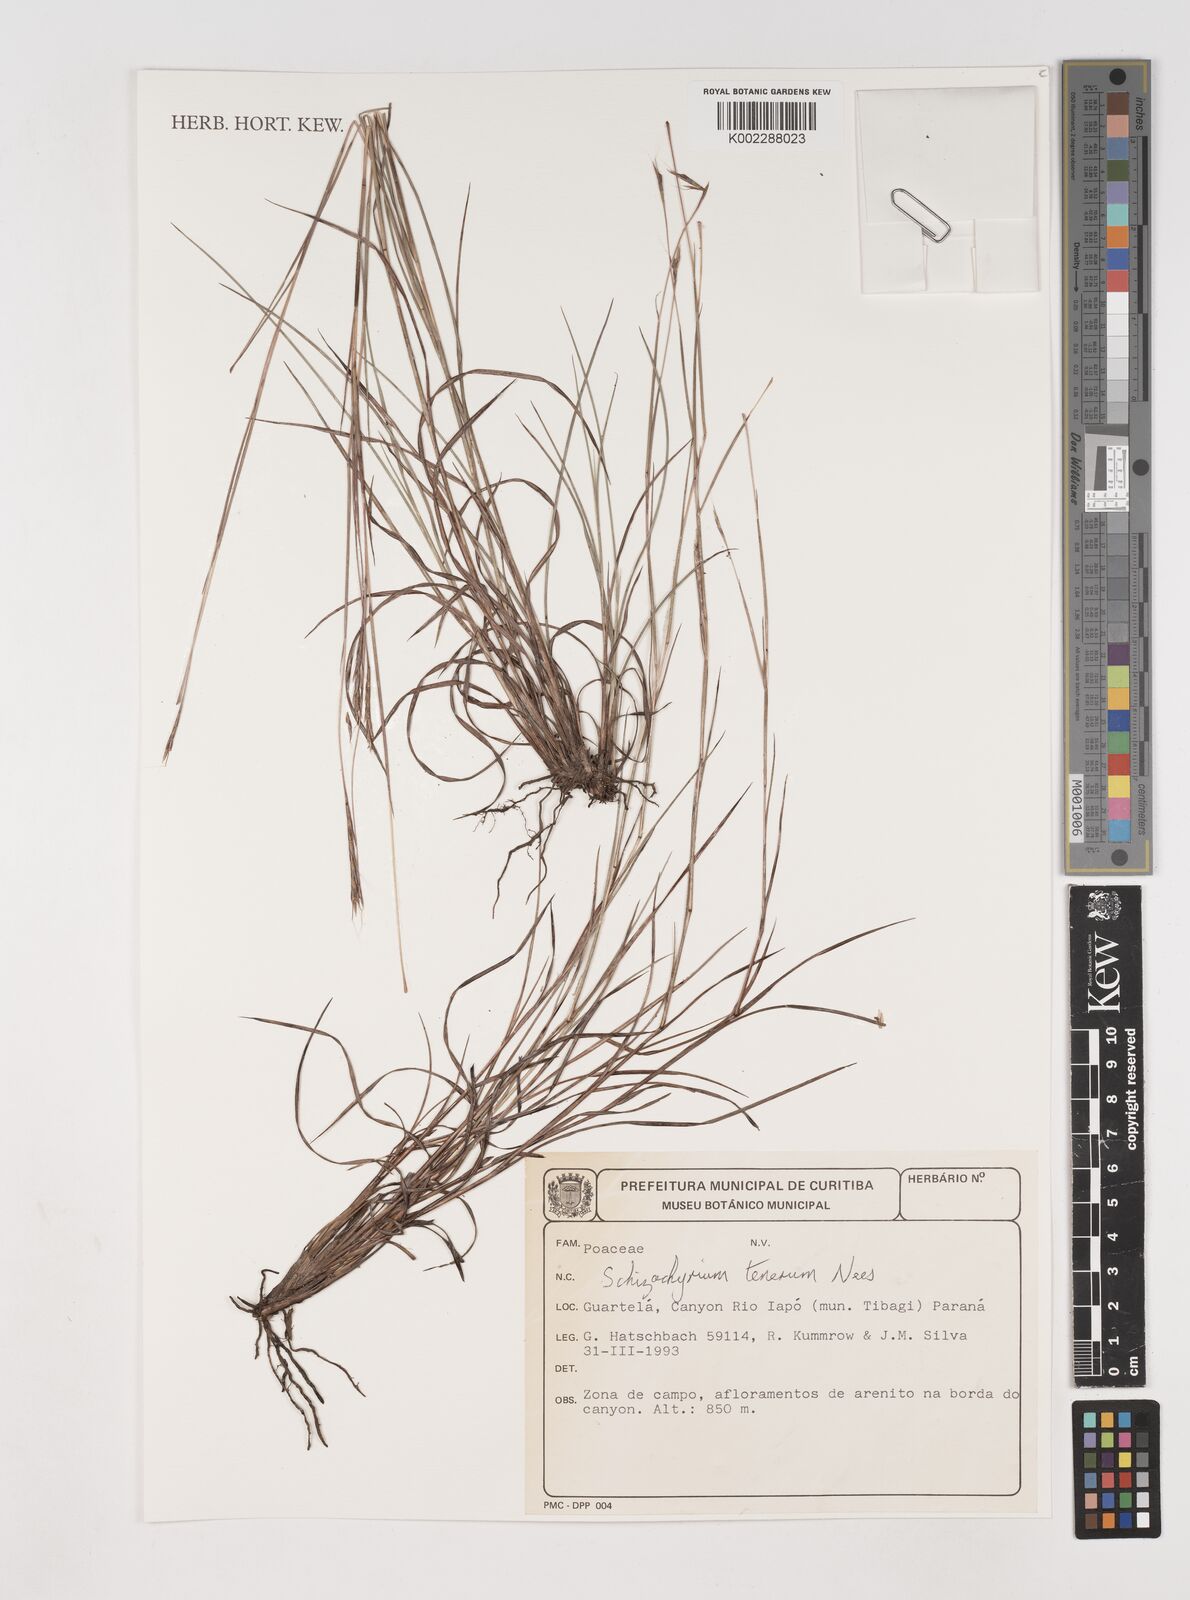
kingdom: Plantae
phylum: Tracheophyta
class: Liliopsida
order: Poales
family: Poaceae
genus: Andropogon
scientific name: Andropogon tener
